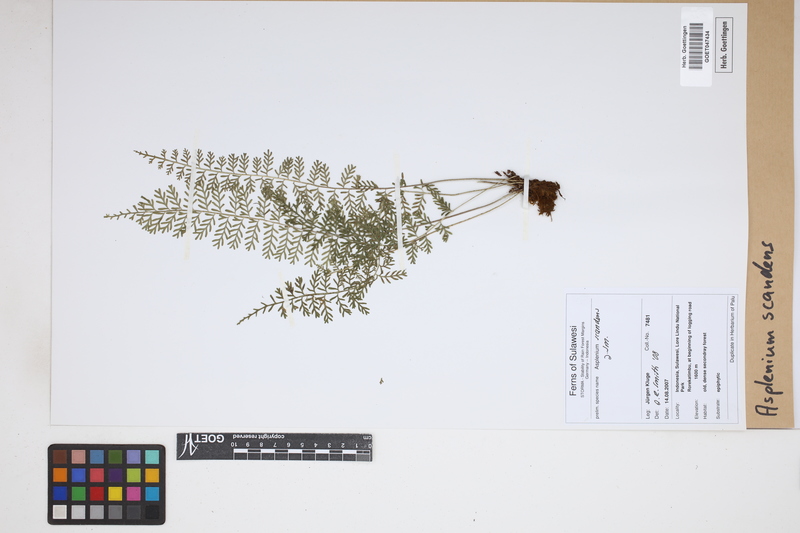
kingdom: Plantae
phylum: Tracheophyta
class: Polypodiopsida
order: Polypodiales
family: Aspleniaceae
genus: Asplenium
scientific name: Asplenium scandens
